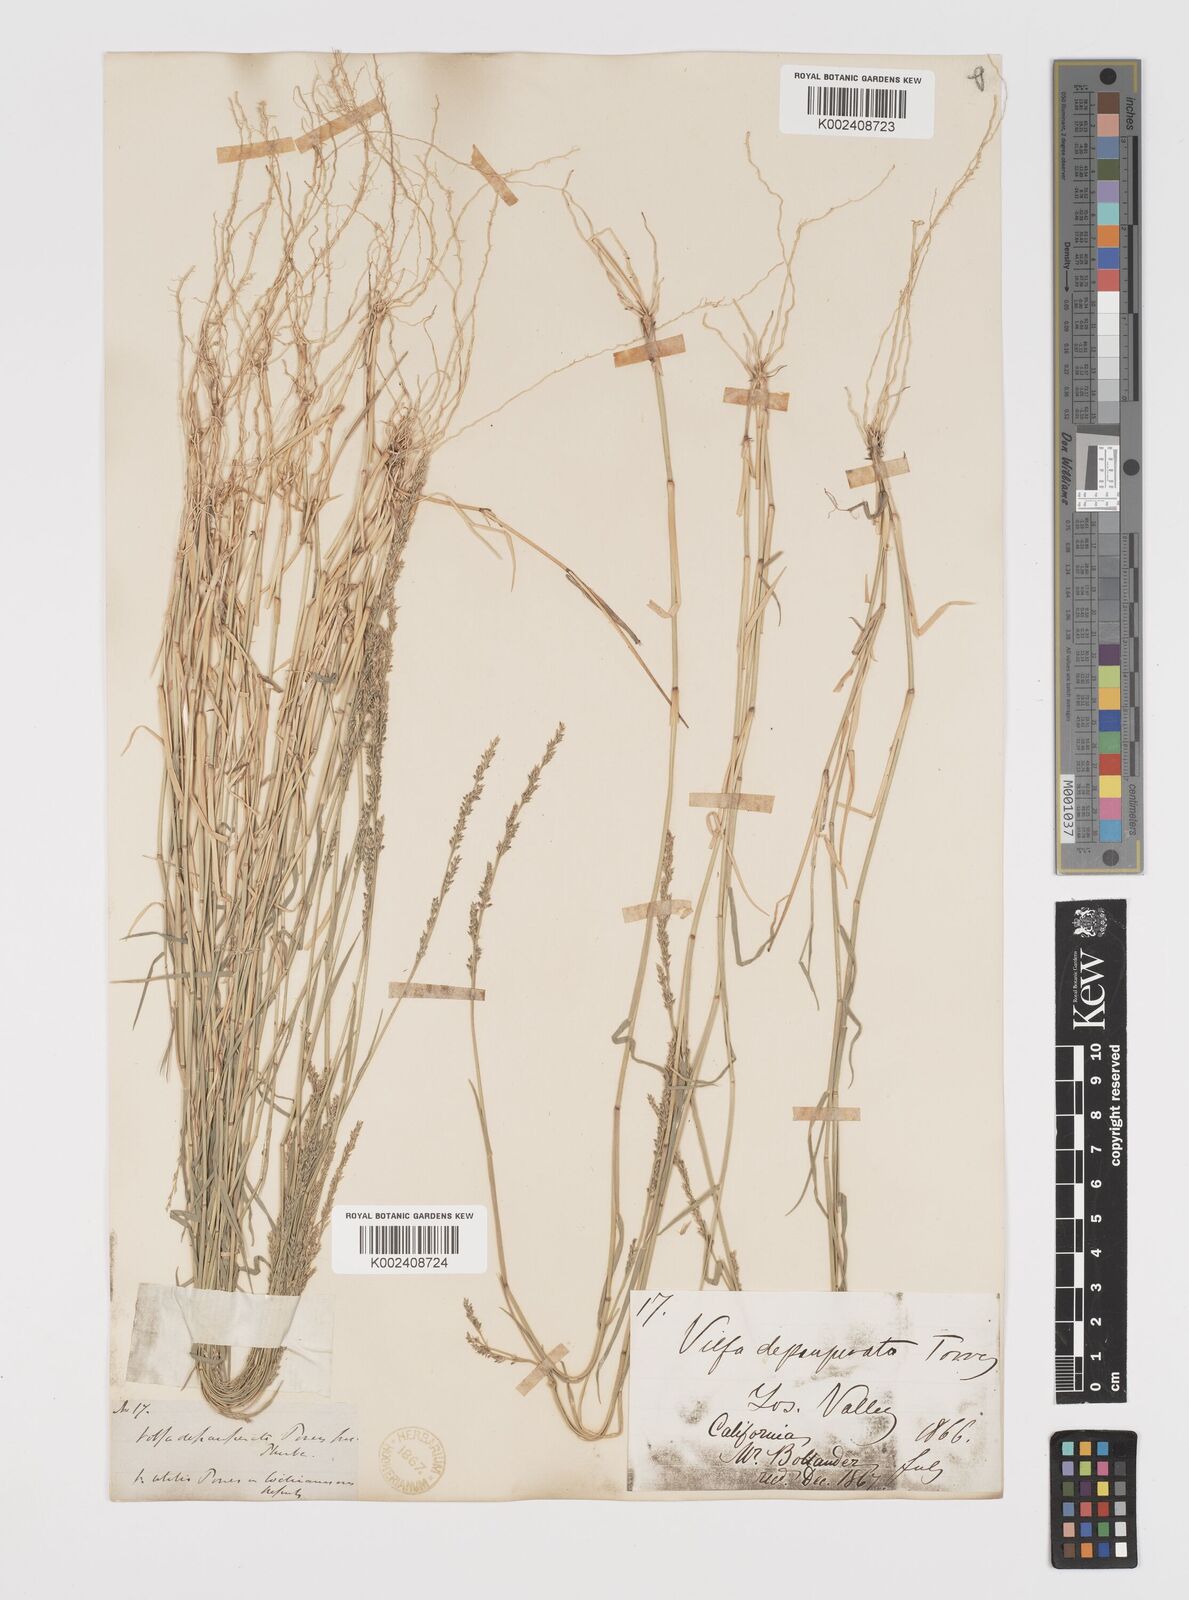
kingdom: Plantae
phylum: Tracheophyta
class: Liliopsida
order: Poales
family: Poaceae
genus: Muhlenbergia
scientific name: Muhlenbergia richardsonis
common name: Mat muhly
